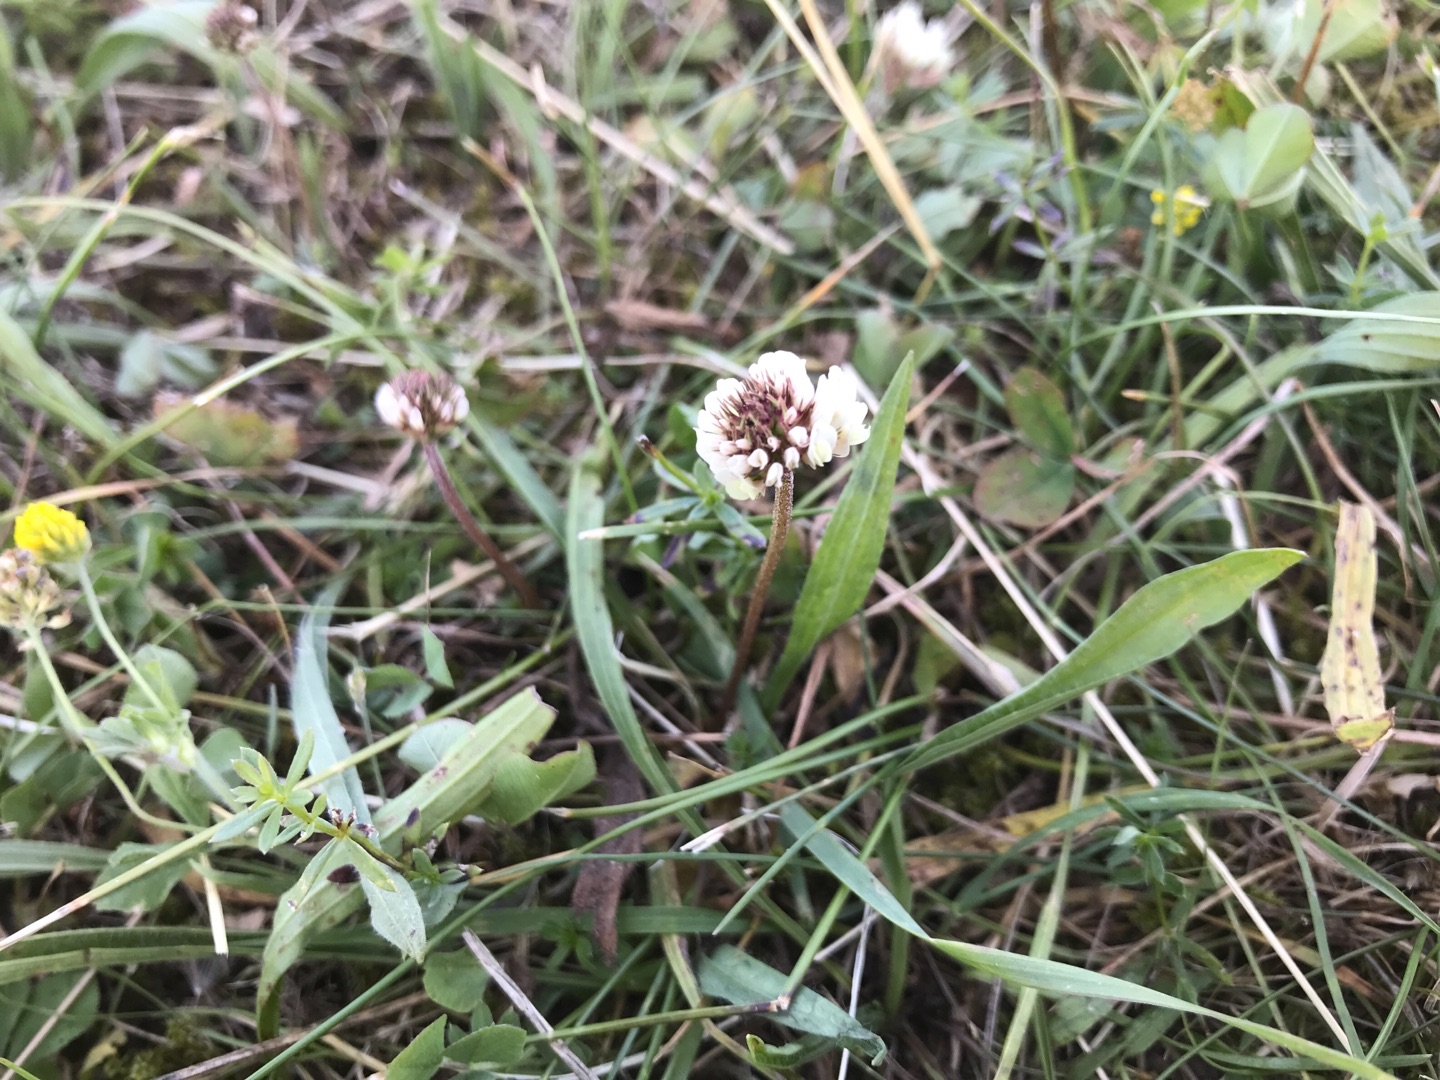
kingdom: Plantae
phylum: Tracheophyta
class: Magnoliopsida
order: Fabales
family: Fabaceae
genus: Trifolium
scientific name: Trifolium repens
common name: Hvid-kløver
